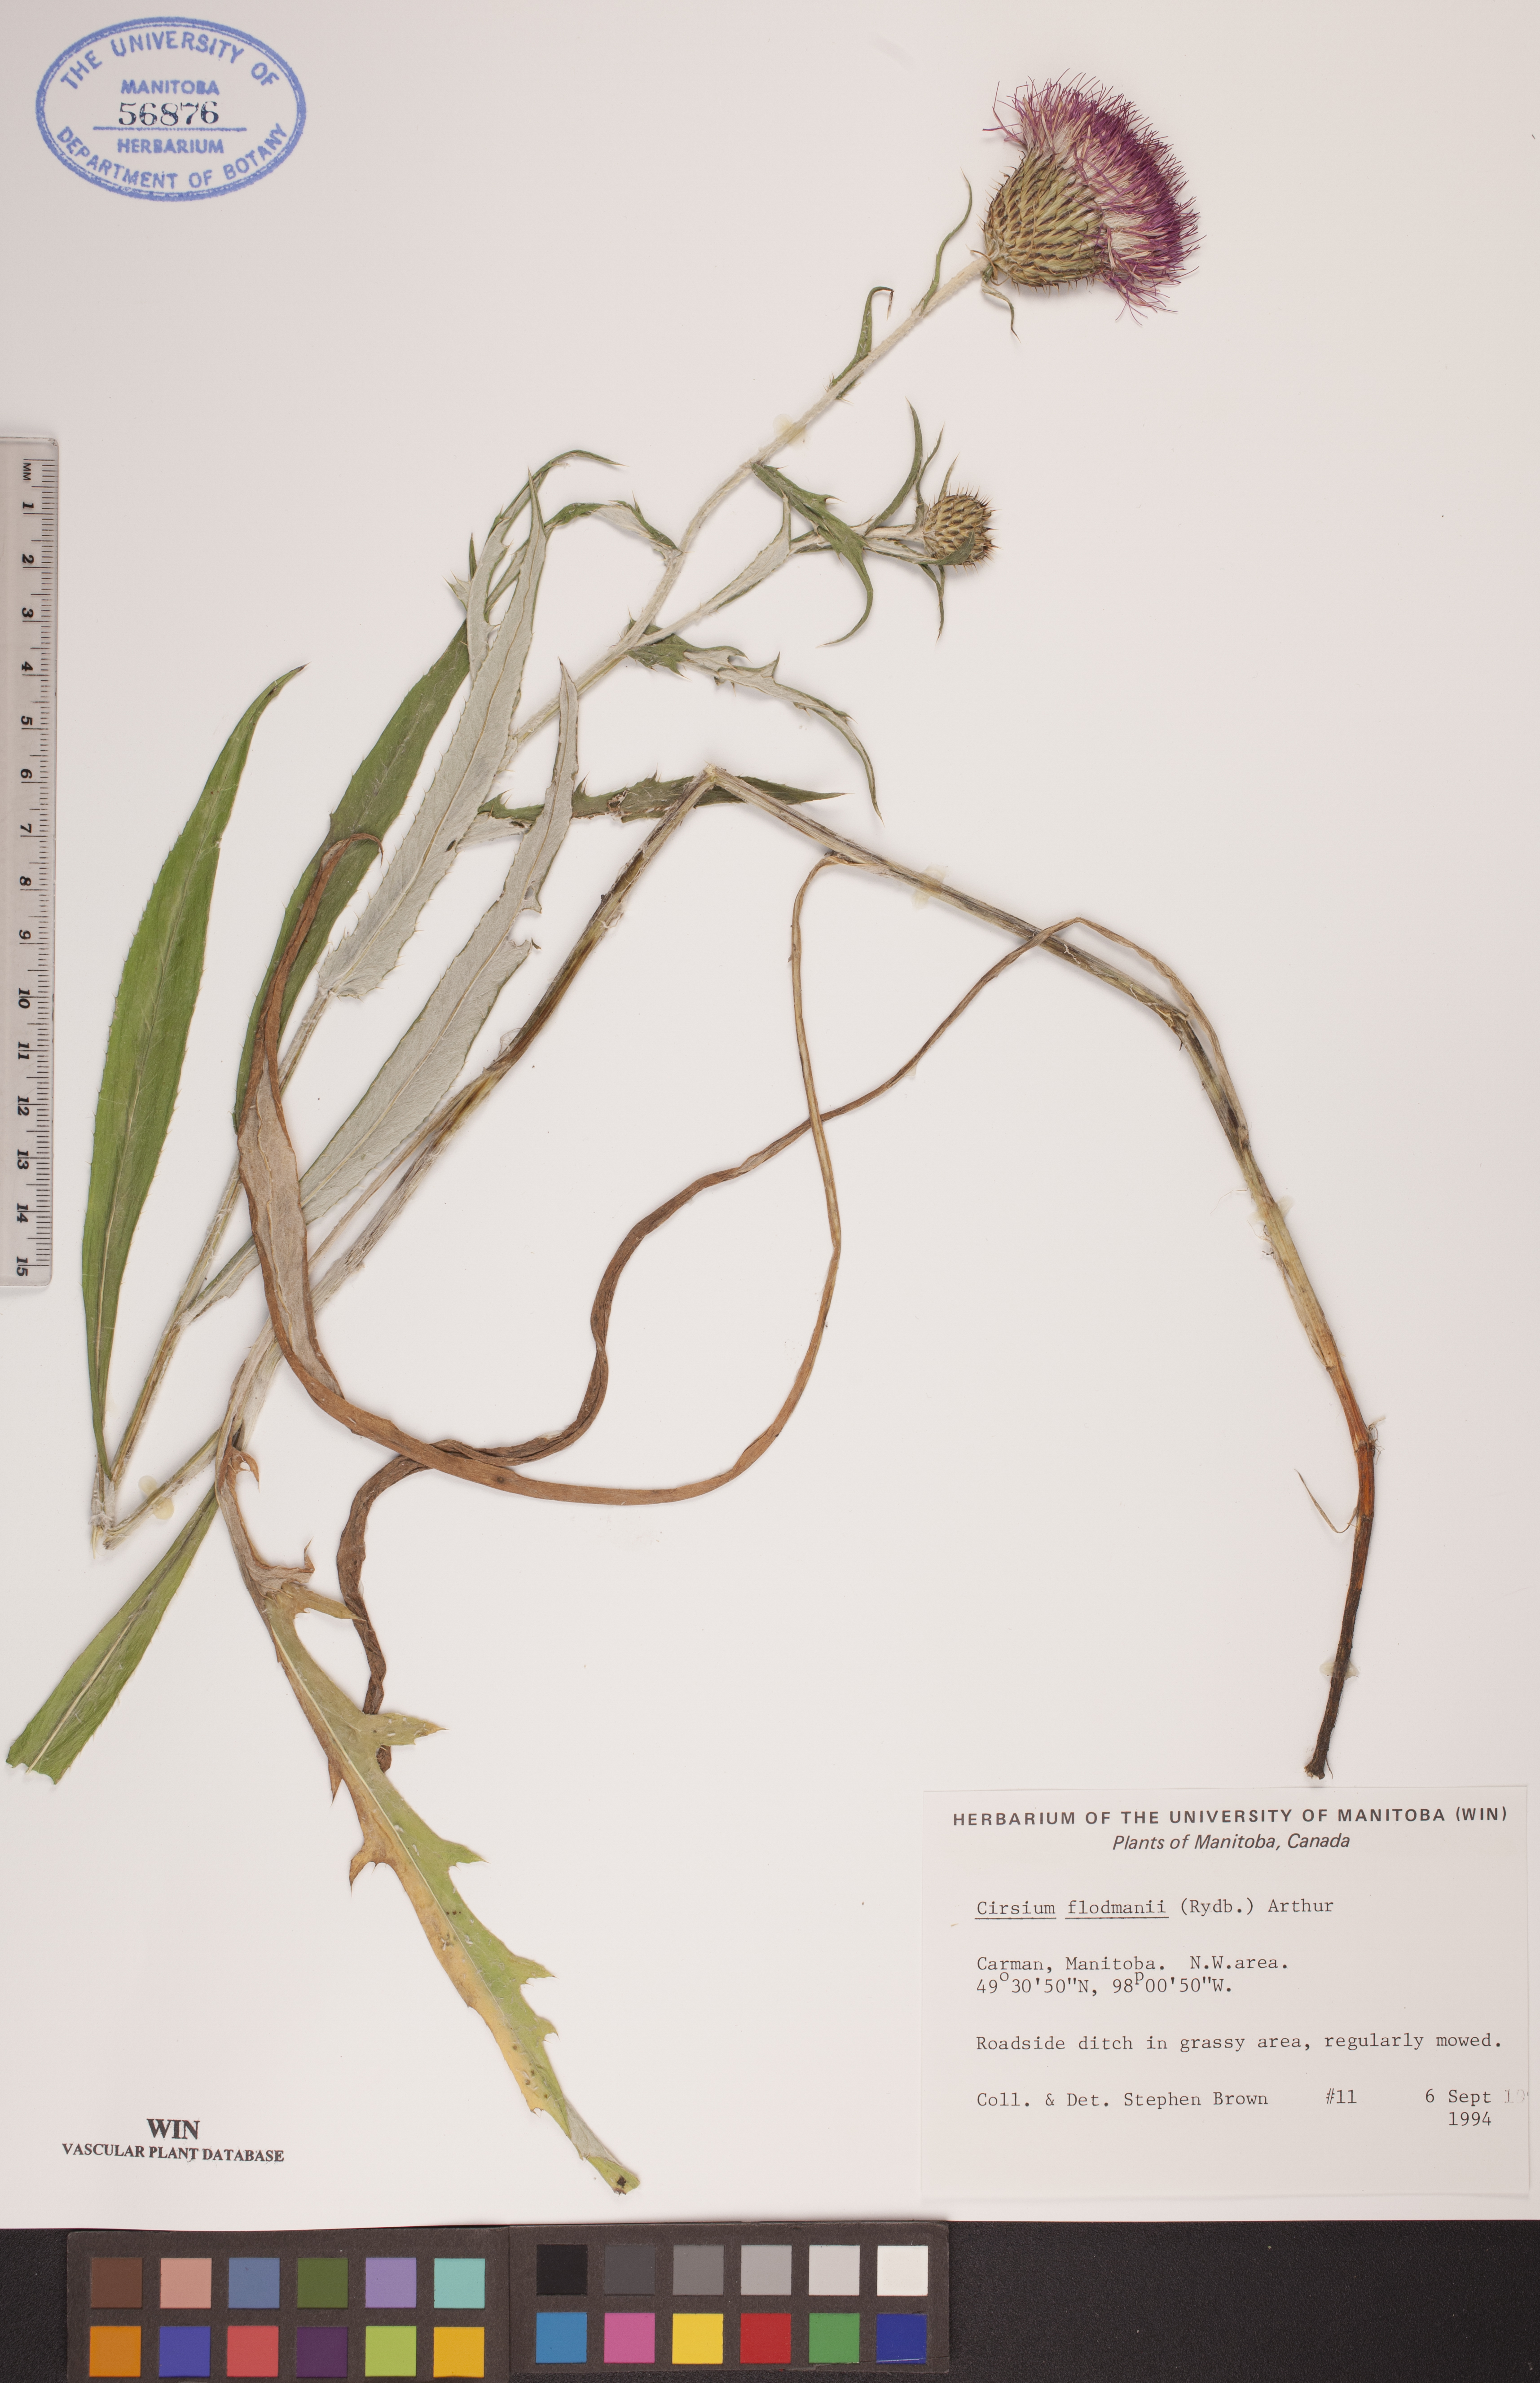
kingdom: Plantae
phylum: Tracheophyta
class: Magnoliopsida
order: Asterales
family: Asteraceae
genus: Cirsium
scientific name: Cirsium flodmanii
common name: Flodman's thistle
